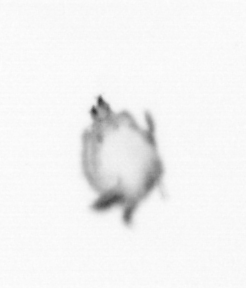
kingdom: Animalia
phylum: Arthropoda
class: Copepoda
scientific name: Copepoda
